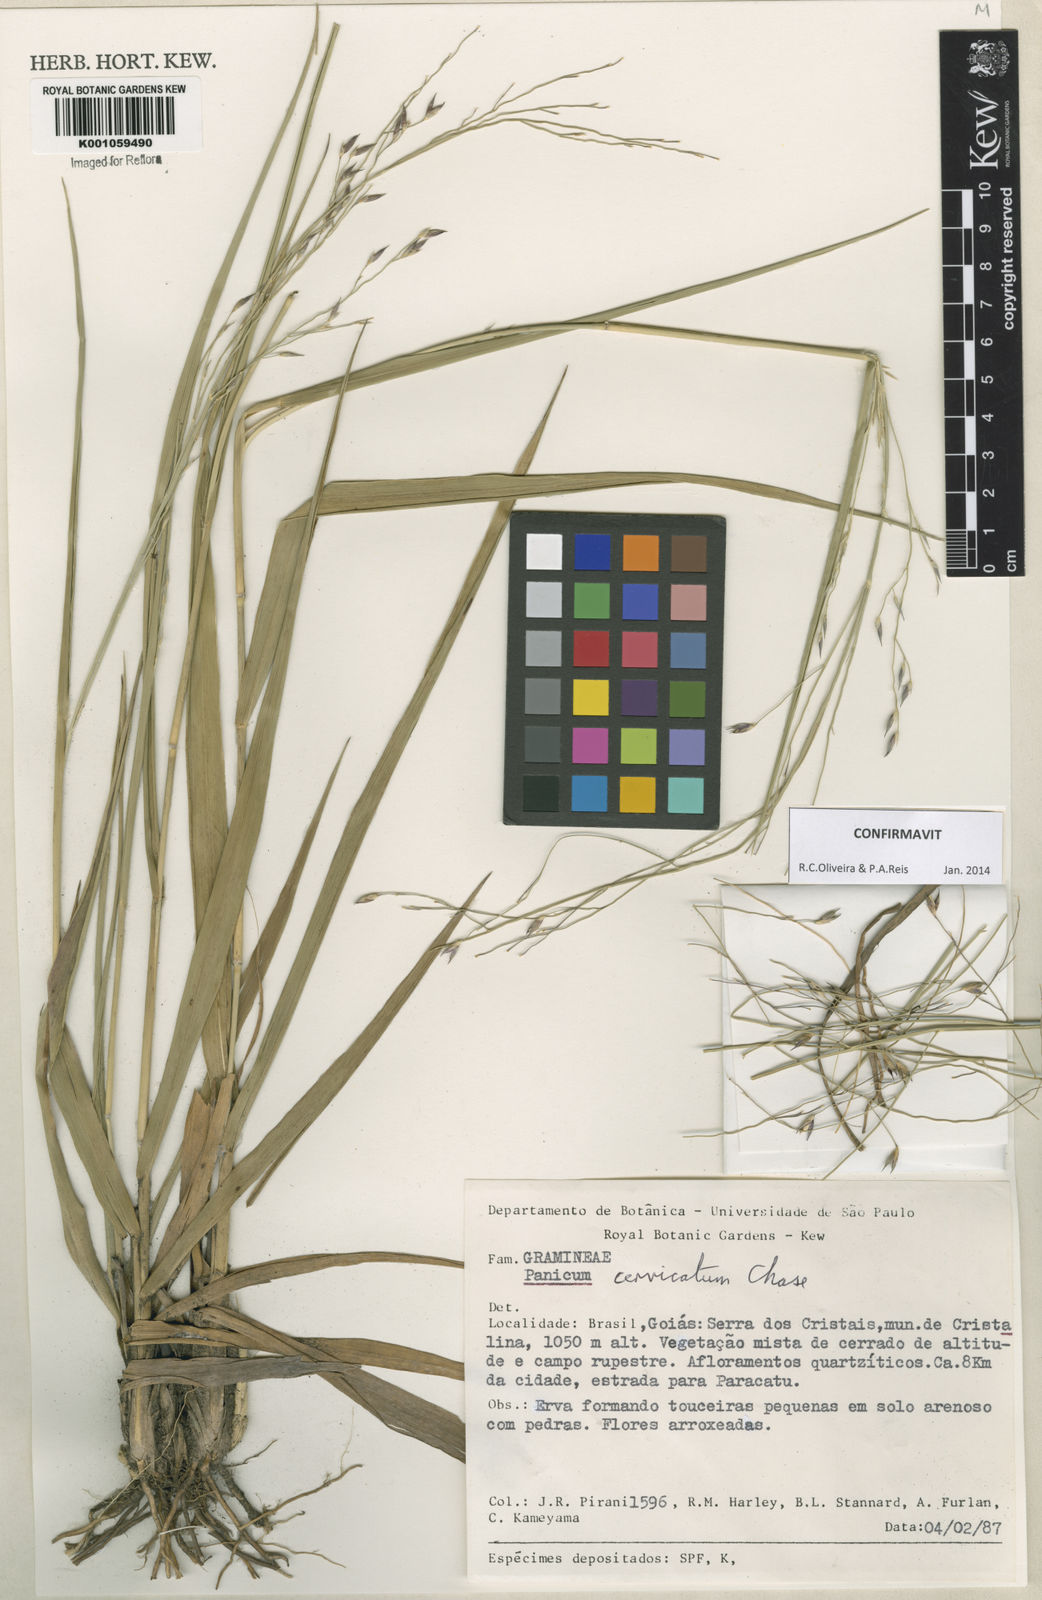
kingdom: Plantae
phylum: Tracheophyta
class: Liliopsida
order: Poales
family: Poaceae
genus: Panicum
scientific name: Panicum cervicatum
